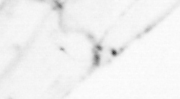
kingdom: Animalia
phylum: Chaetognatha
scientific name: Chaetognatha
